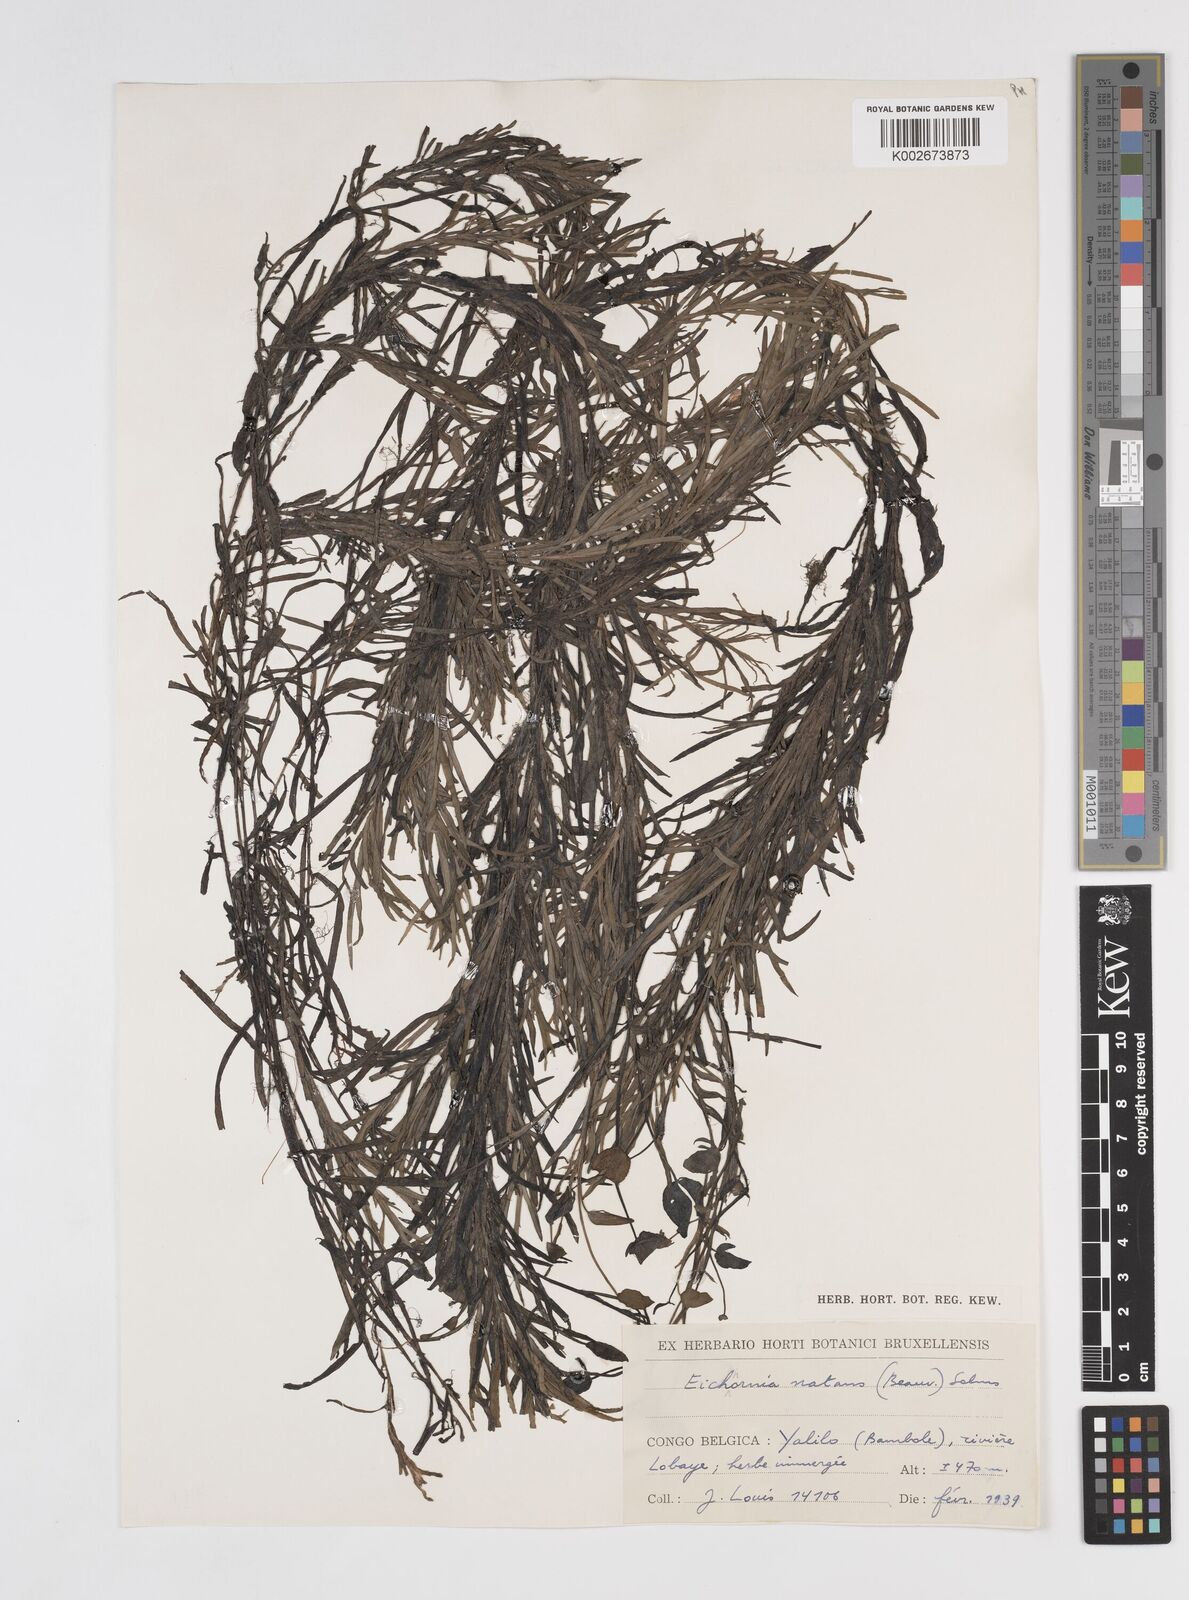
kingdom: Plantae
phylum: Tracheophyta
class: Liliopsida
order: Commelinales
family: Pontederiaceae
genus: Pontederia
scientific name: Pontederia natans
